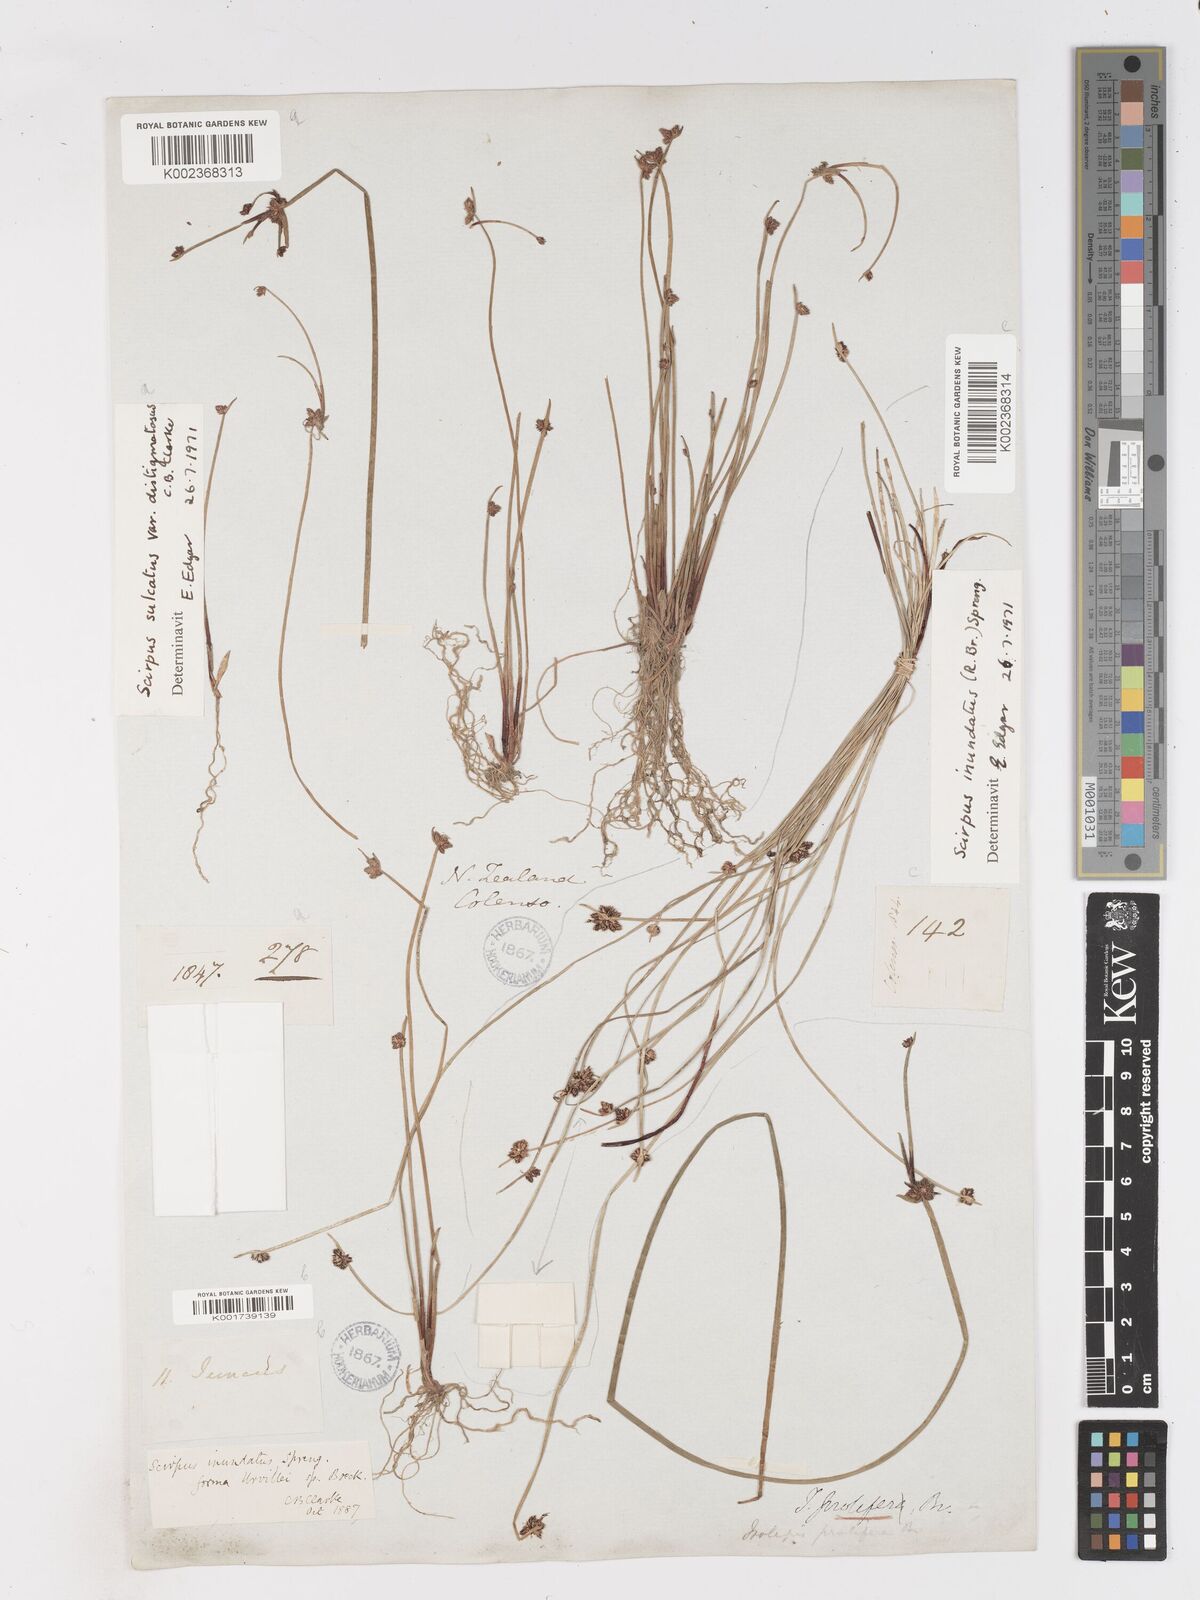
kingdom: Plantae
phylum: Tracheophyta
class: Liliopsida
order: Poales
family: Cyperaceae
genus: Isolepis
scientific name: Isolepis sulcata
